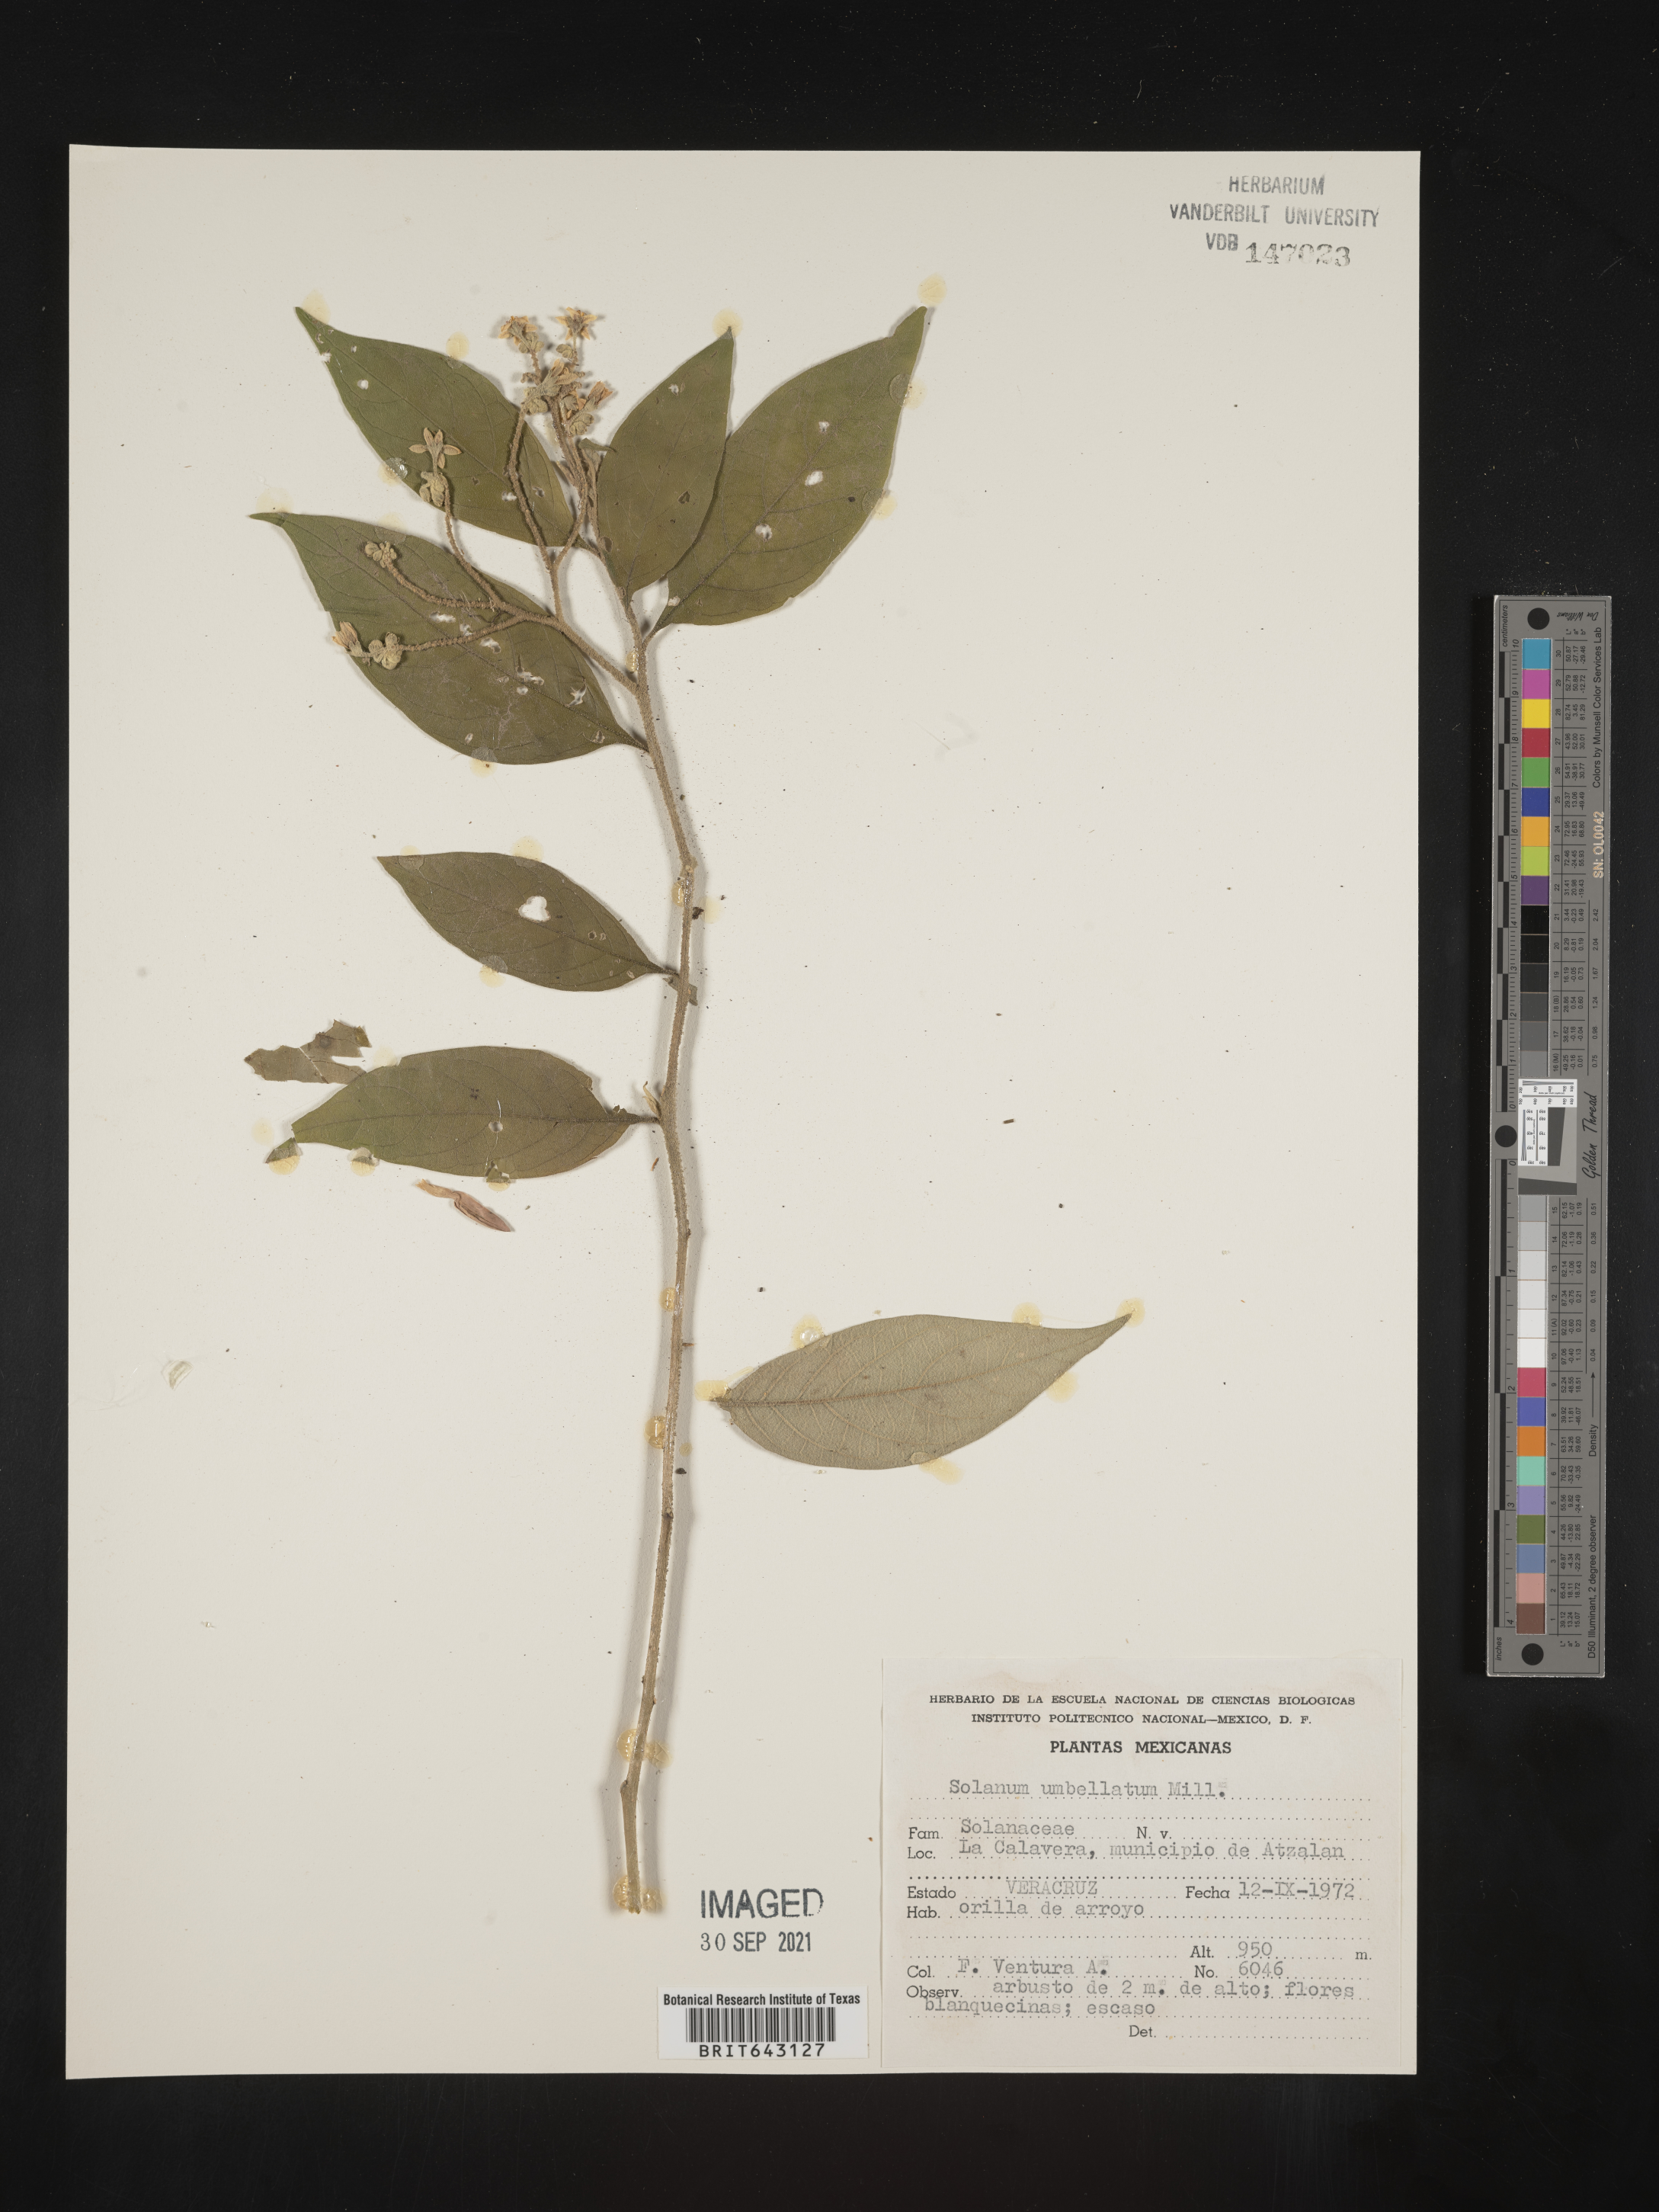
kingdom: Plantae
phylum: Tracheophyta
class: Magnoliopsida
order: Solanales
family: Solanaceae
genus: Solanum
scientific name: Solanum
